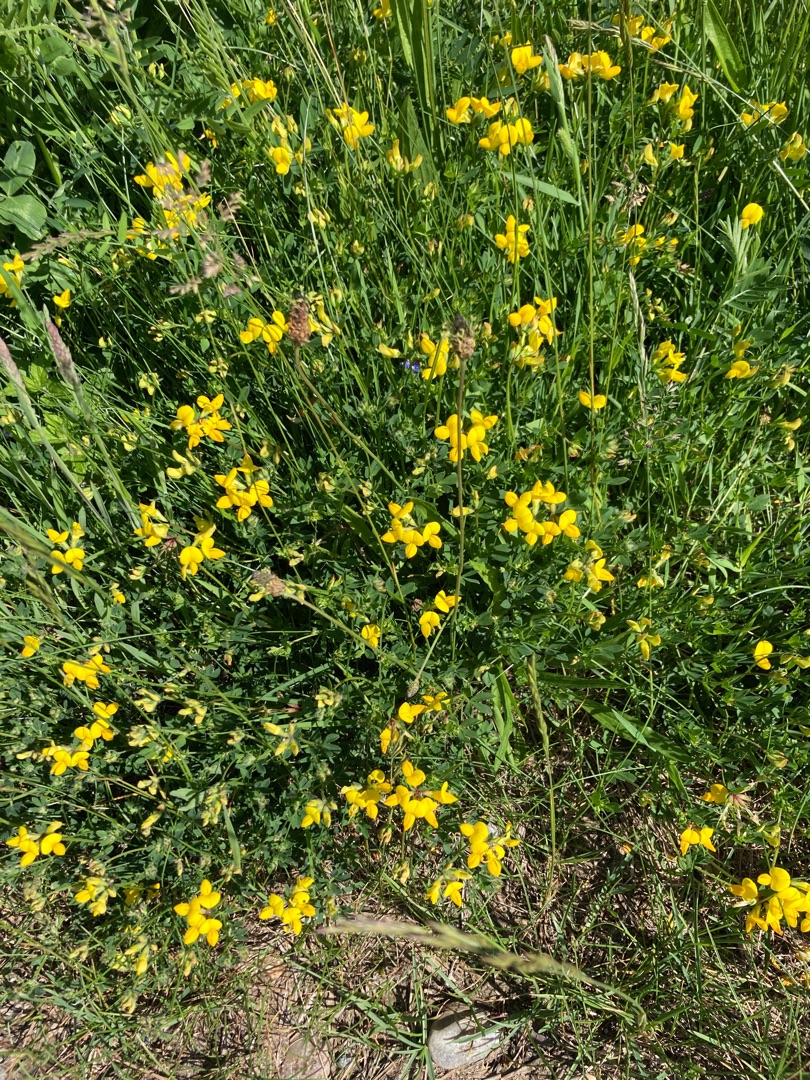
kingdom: Plantae
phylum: Tracheophyta
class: Magnoliopsida
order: Fabales
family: Fabaceae
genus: Lotus
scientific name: Lotus corniculatus
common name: Almindelig kællingetand
